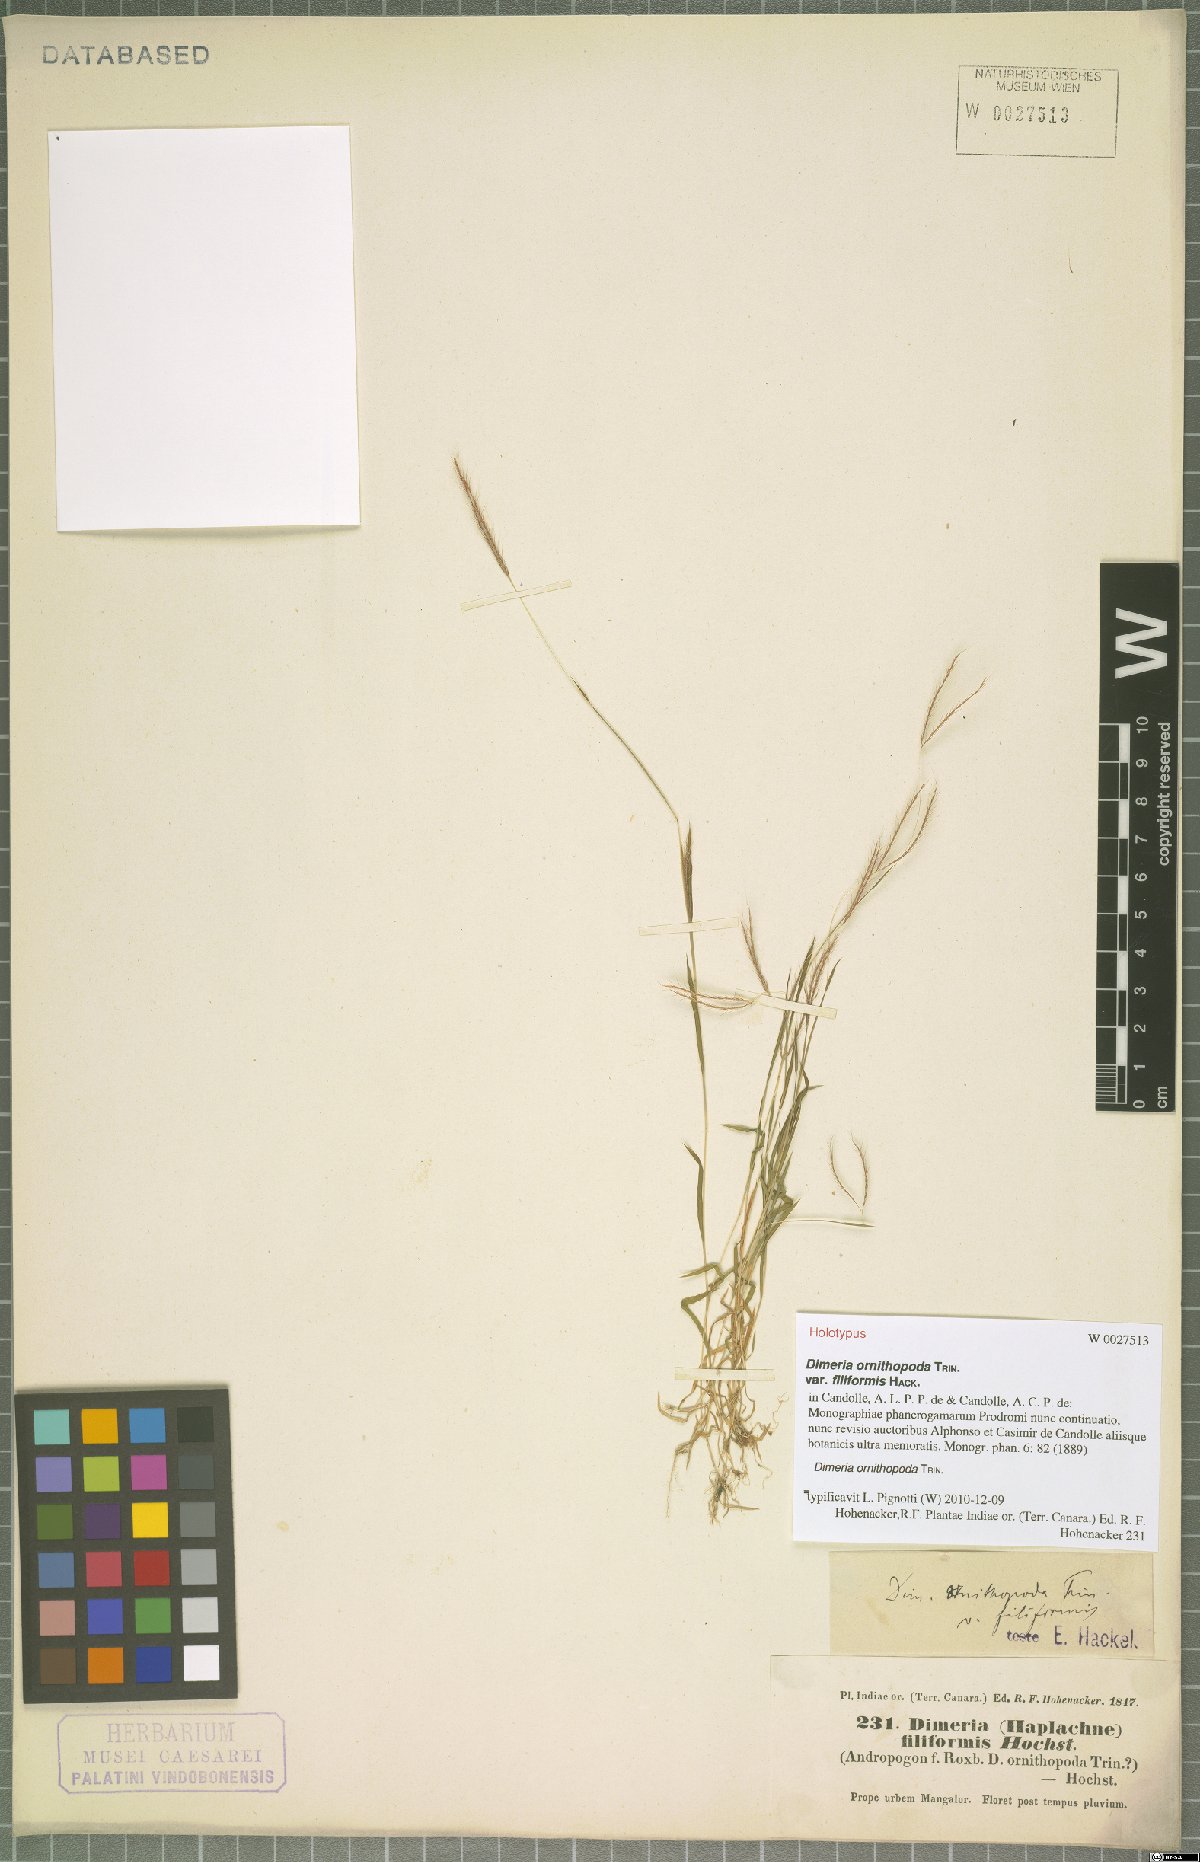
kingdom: Plantae
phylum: Tracheophyta
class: Liliopsida
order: Poales
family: Poaceae
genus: Dimeria
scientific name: Dimeria ornithopoda
